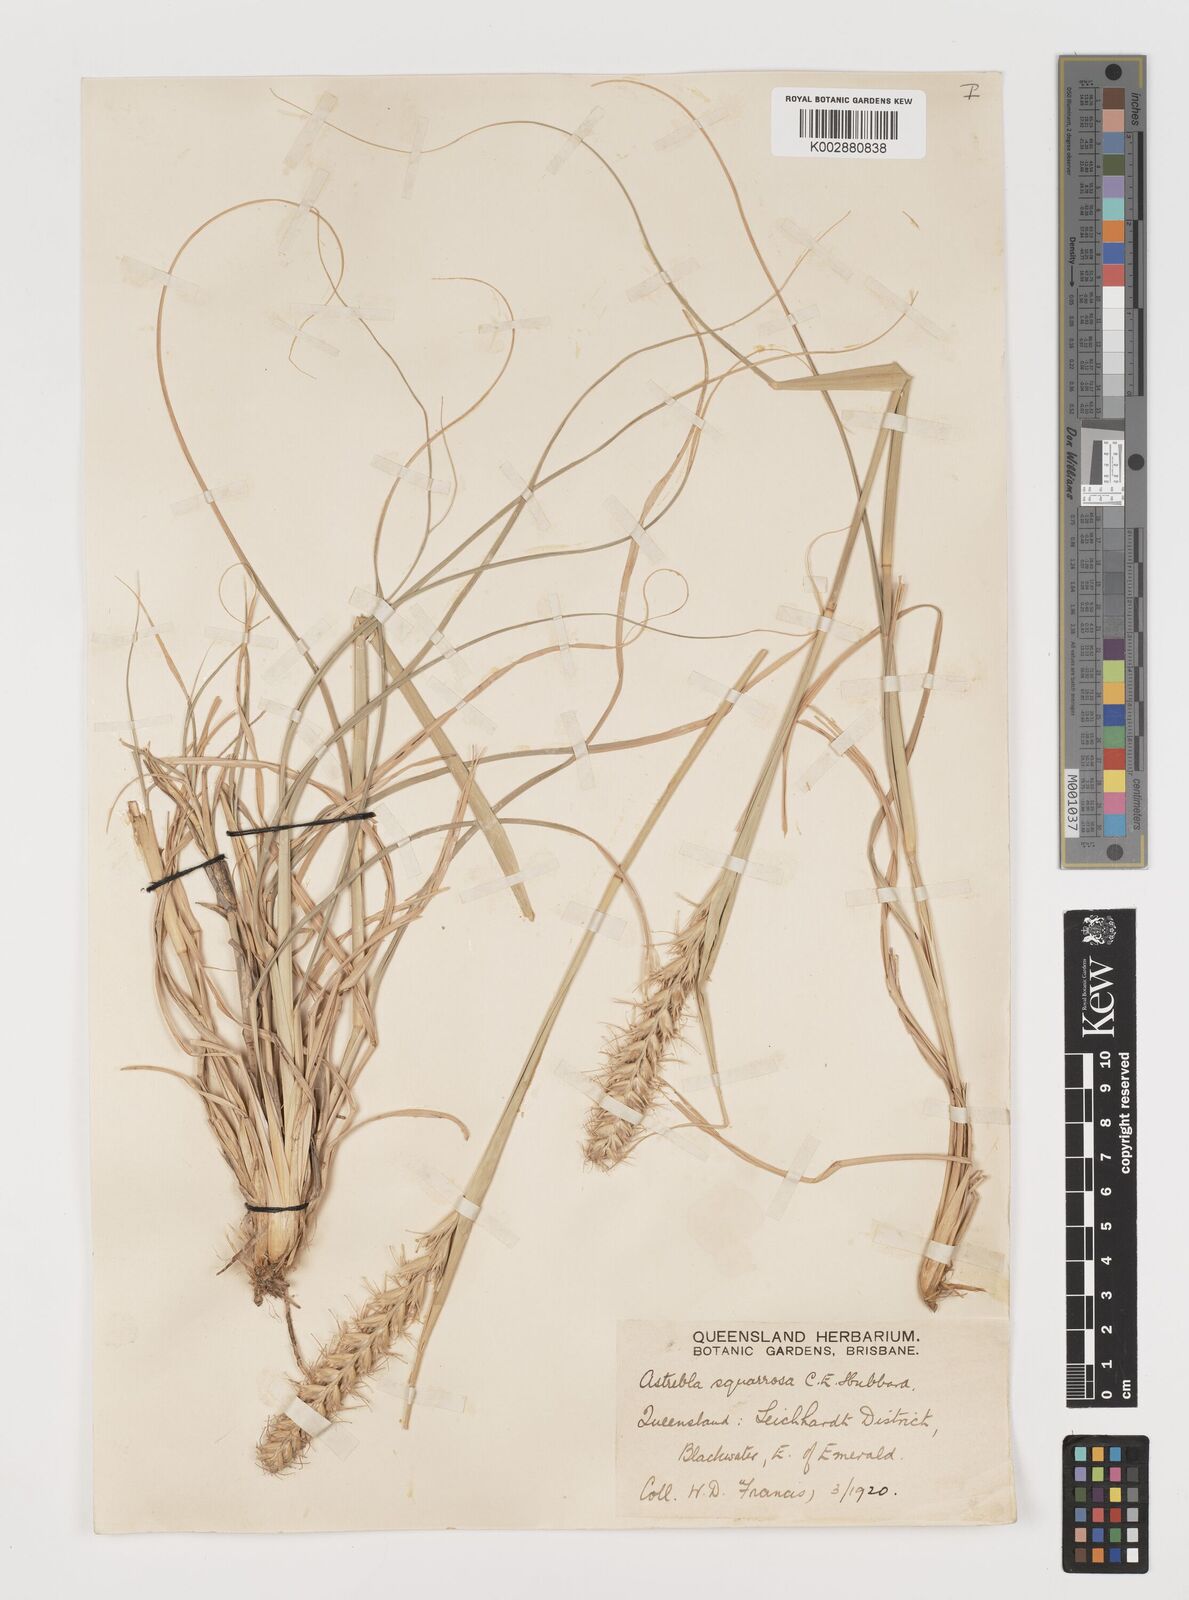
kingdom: Plantae
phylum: Tracheophyta
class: Liliopsida
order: Poales
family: Poaceae
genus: Astrebla
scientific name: Astrebla squarrosa
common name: Wheat-ear mitchell grass
